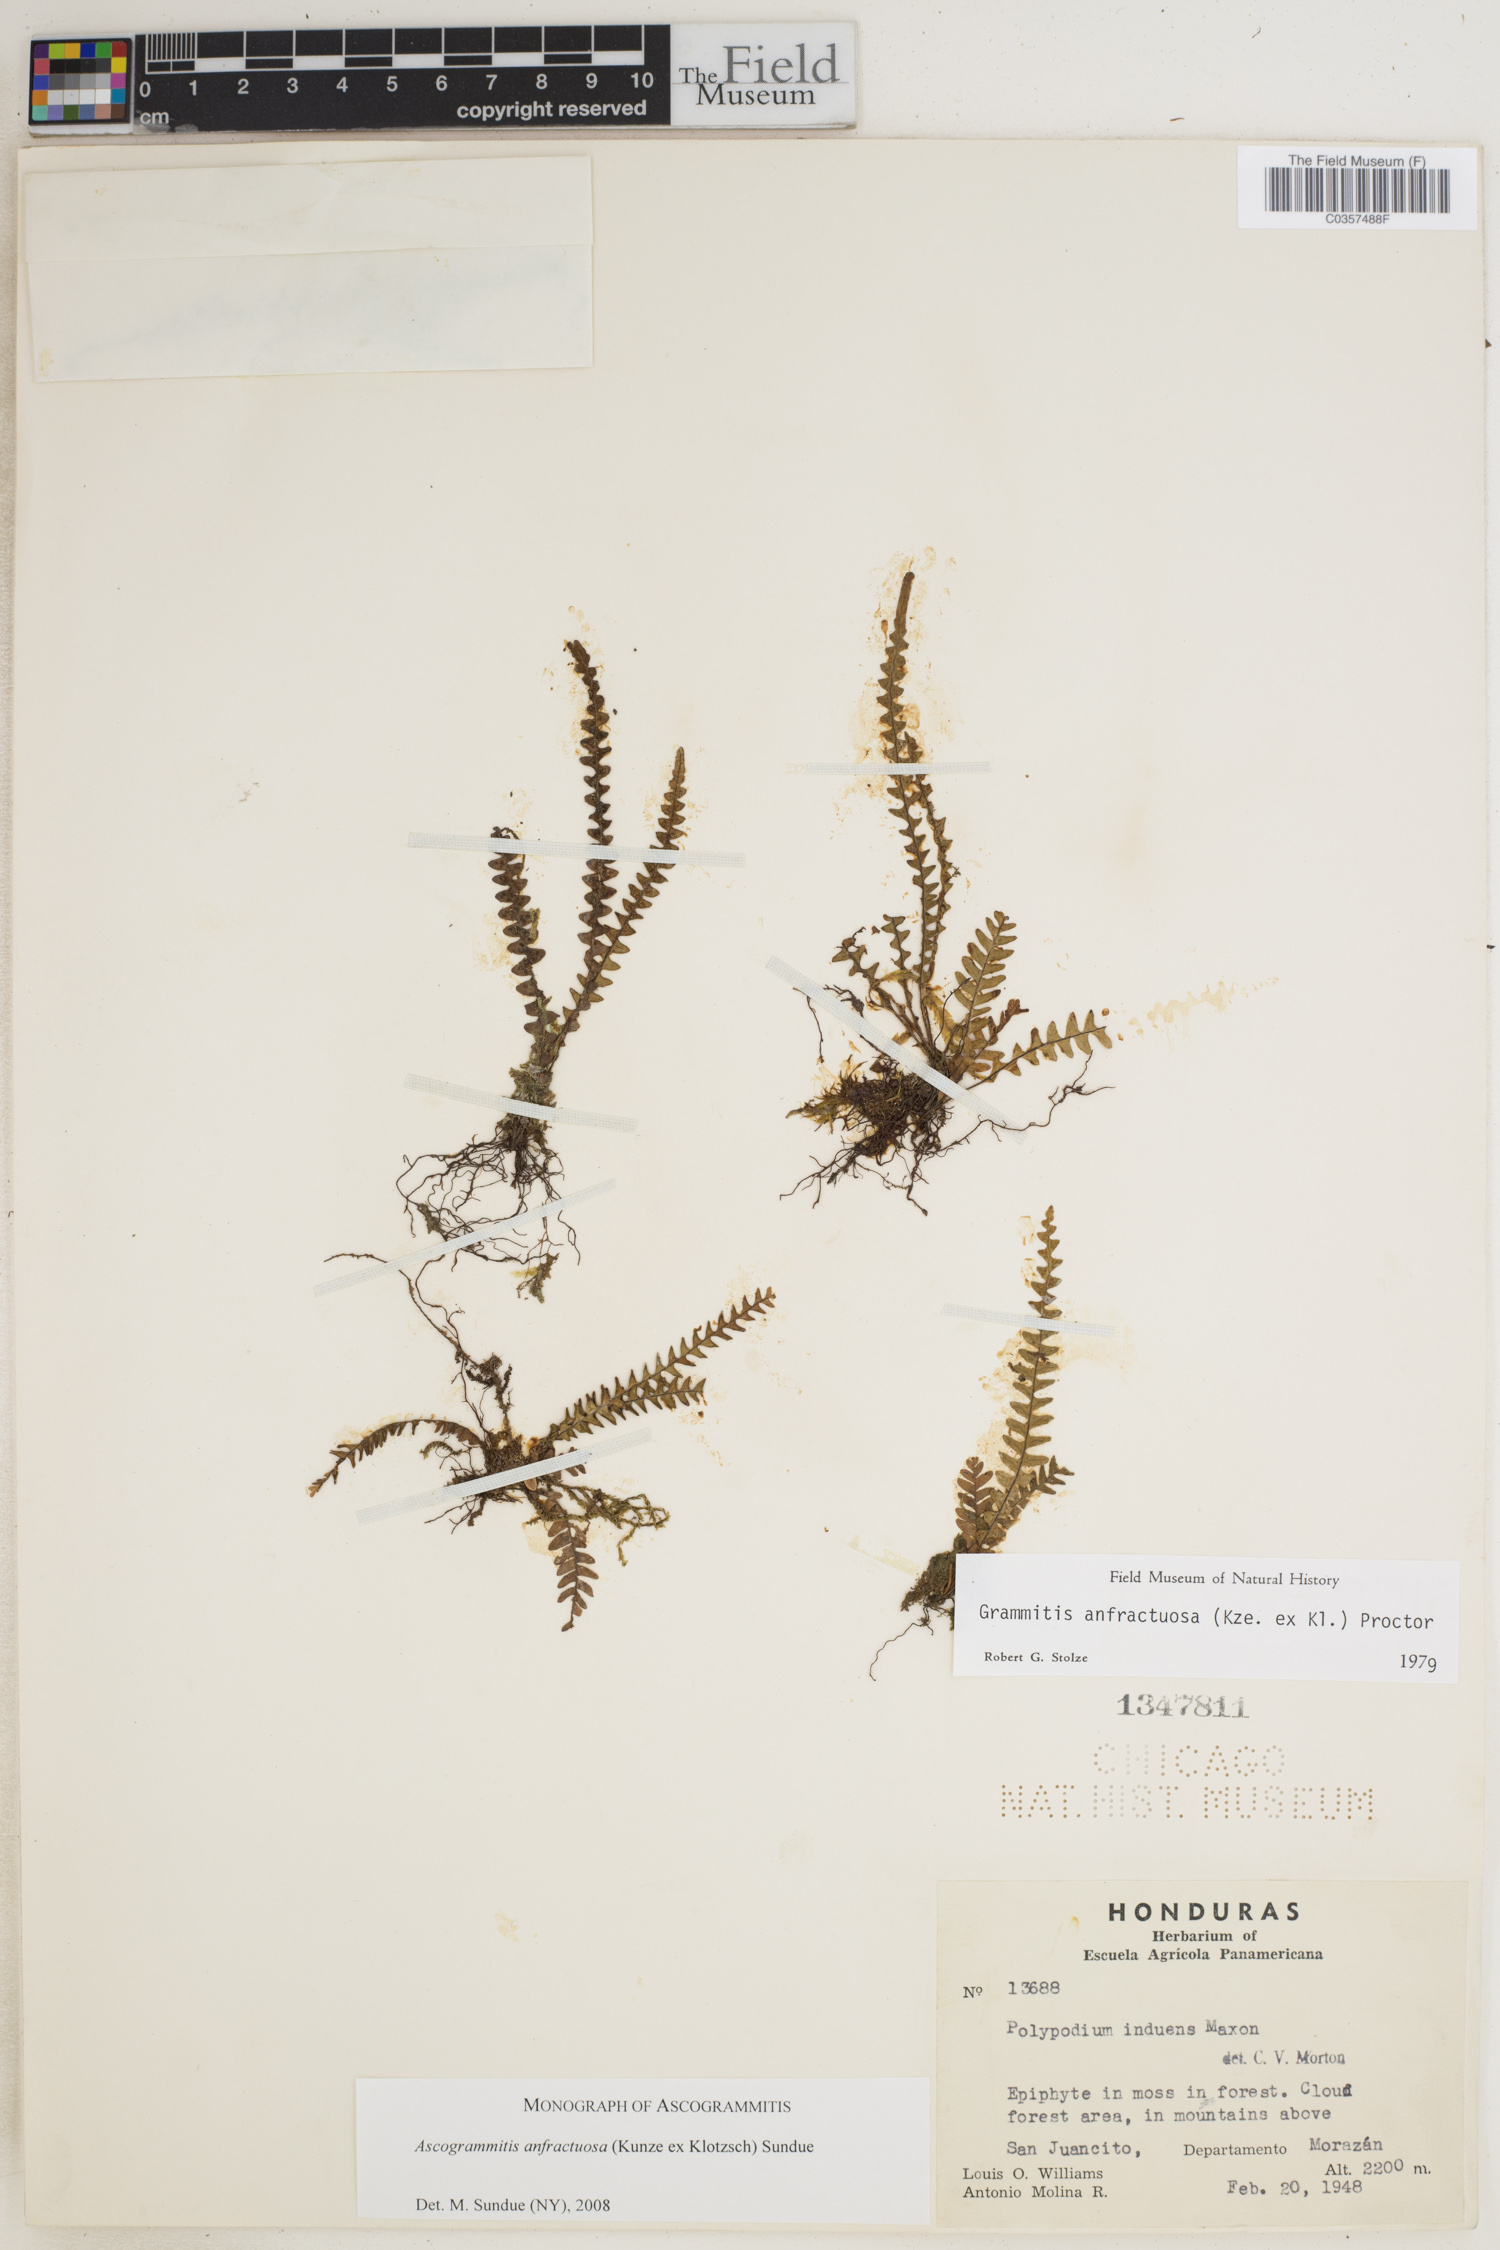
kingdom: Plantae
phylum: Tracheophyta
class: Polypodiopsida
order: Polypodiales
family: Polypodiaceae
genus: Ascogrammitis
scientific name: Ascogrammitis anfractuosa
